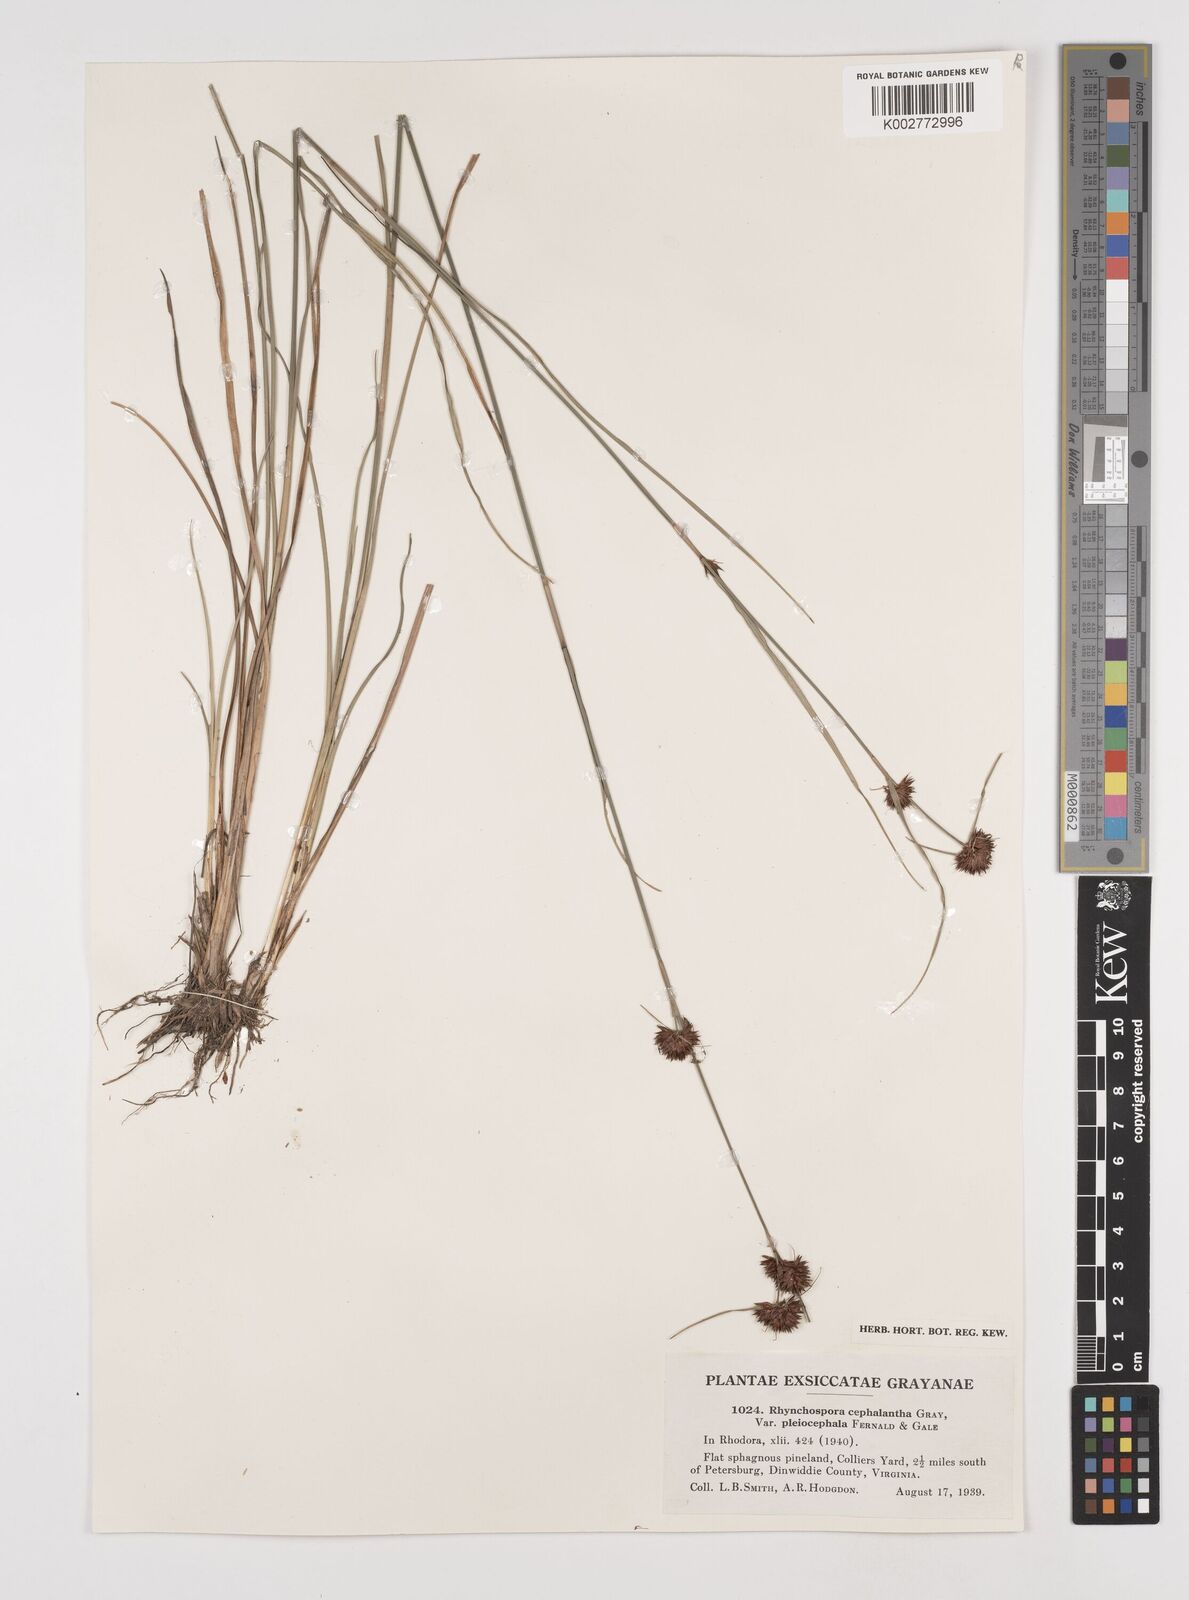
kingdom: Plantae
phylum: Tracheophyta
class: Liliopsida
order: Poales
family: Cyperaceae
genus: Rhynchospora
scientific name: Rhynchospora cephalantha
